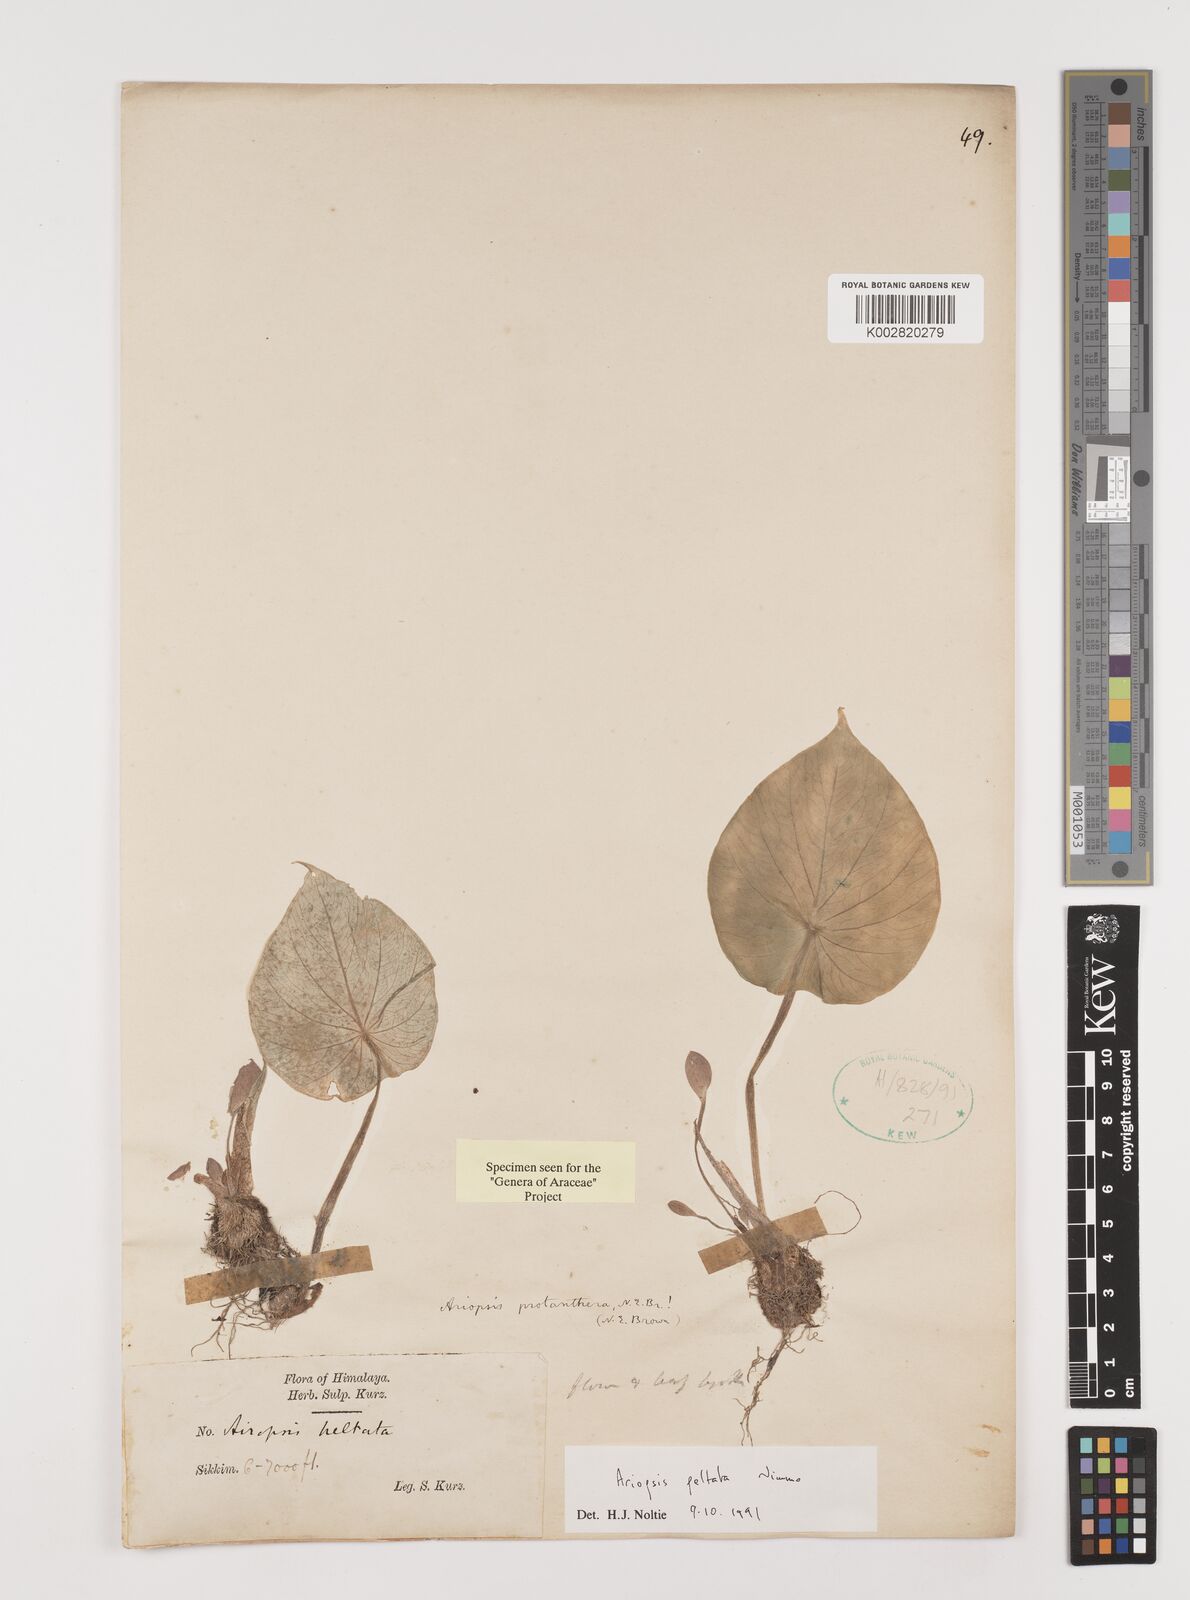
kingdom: Plantae
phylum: Tracheophyta
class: Liliopsida
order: Alismatales
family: Araceae
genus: Ariopsis
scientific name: Ariopsis peltata
